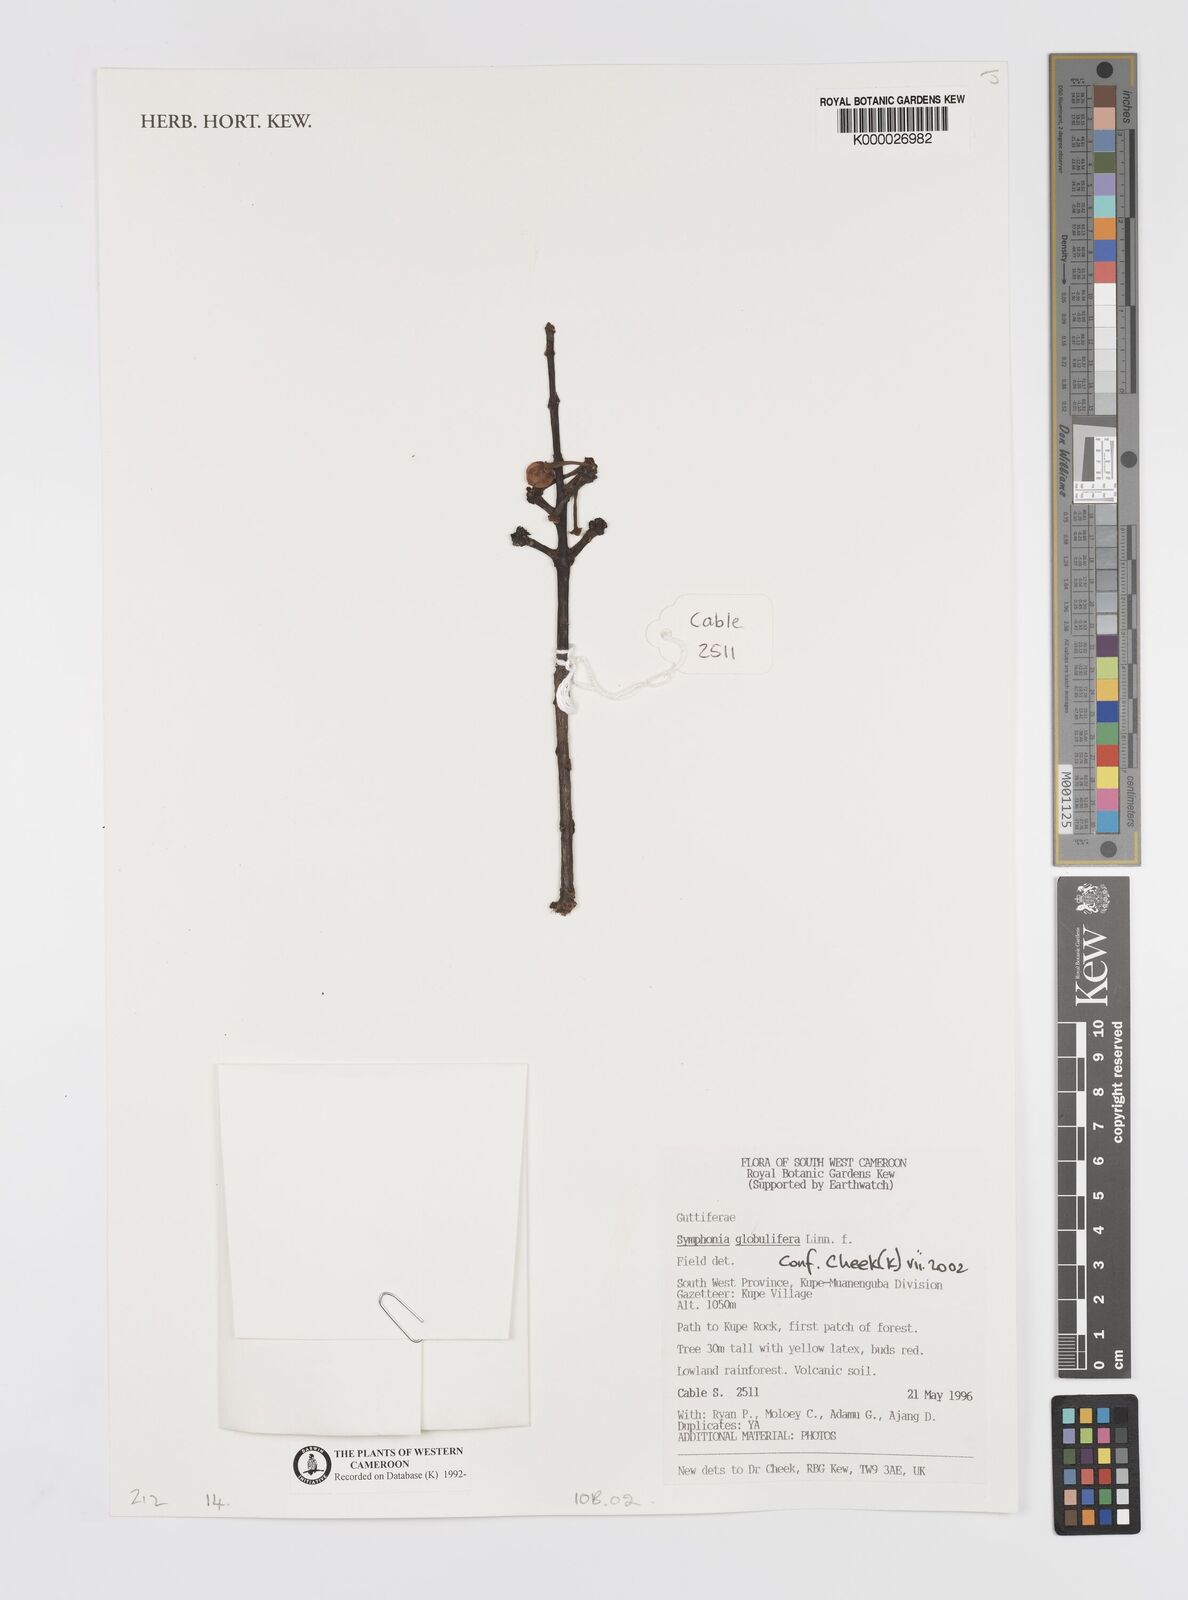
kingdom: Plantae
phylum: Tracheophyta
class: Magnoliopsida
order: Malpighiales
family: Clusiaceae
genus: Symphonia
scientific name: Symphonia globulifera
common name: Boarwood
